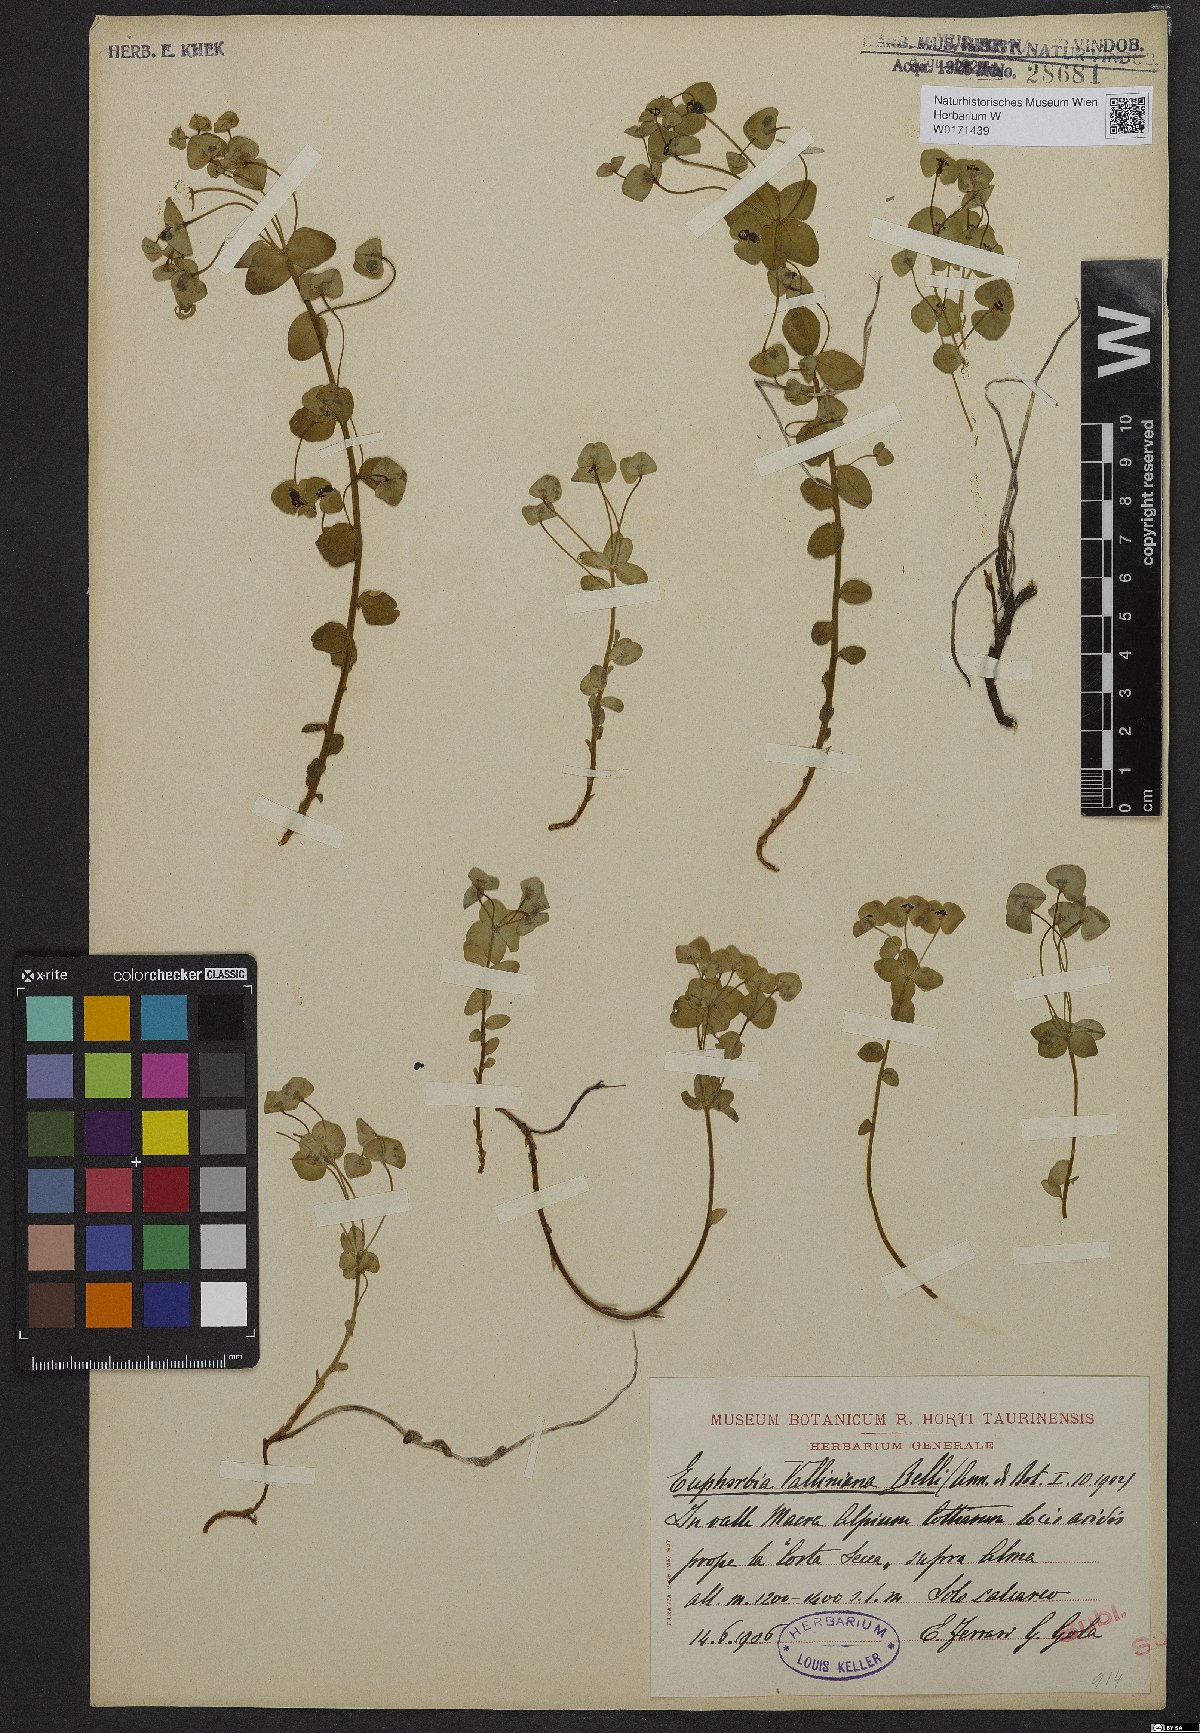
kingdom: Plantae
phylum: Tracheophyta
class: Magnoliopsida
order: Malpighiales
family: Euphorbiaceae
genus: Euphorbia
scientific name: Euphorbia variabilis
